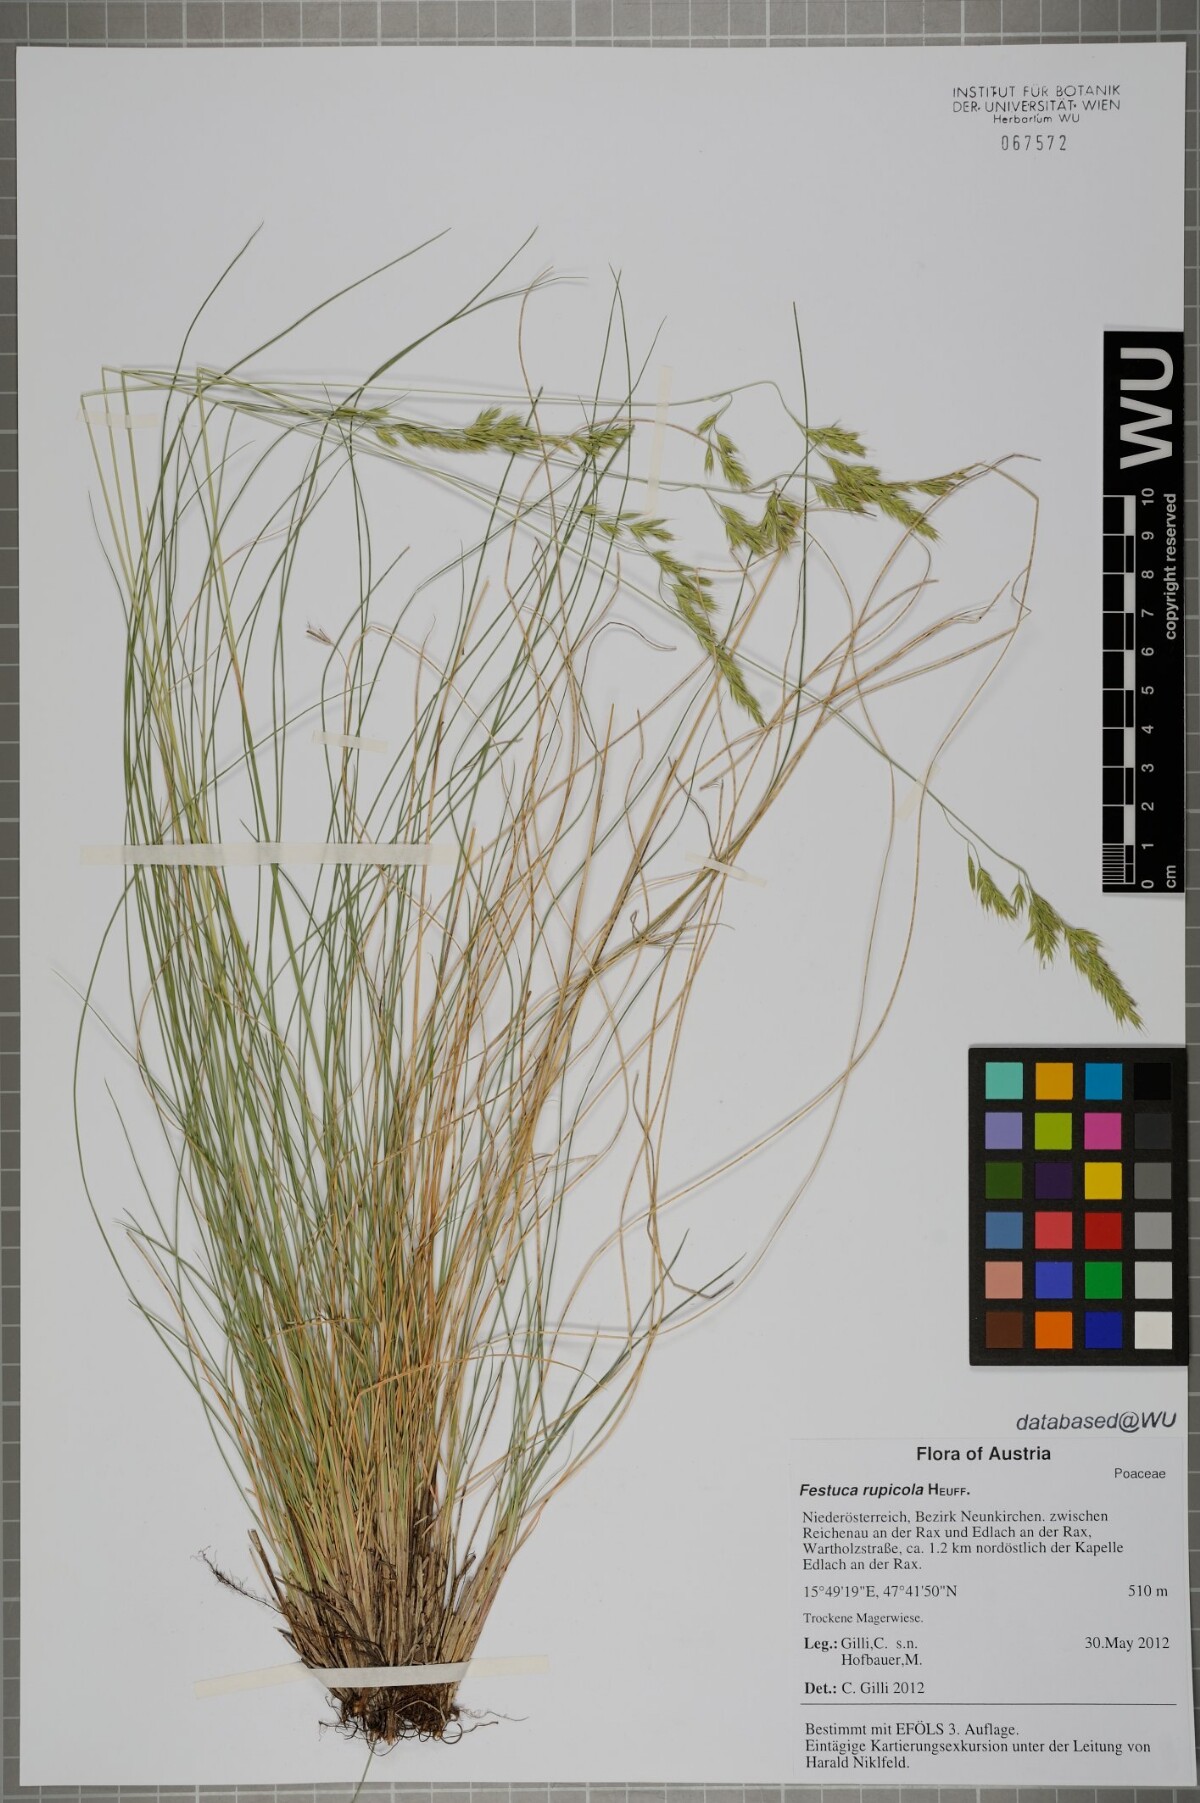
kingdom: Plantae
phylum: Tracheophyta
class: Liliopsida
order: Poales
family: Poaceae
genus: Festuca
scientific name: Festuca rupicola
